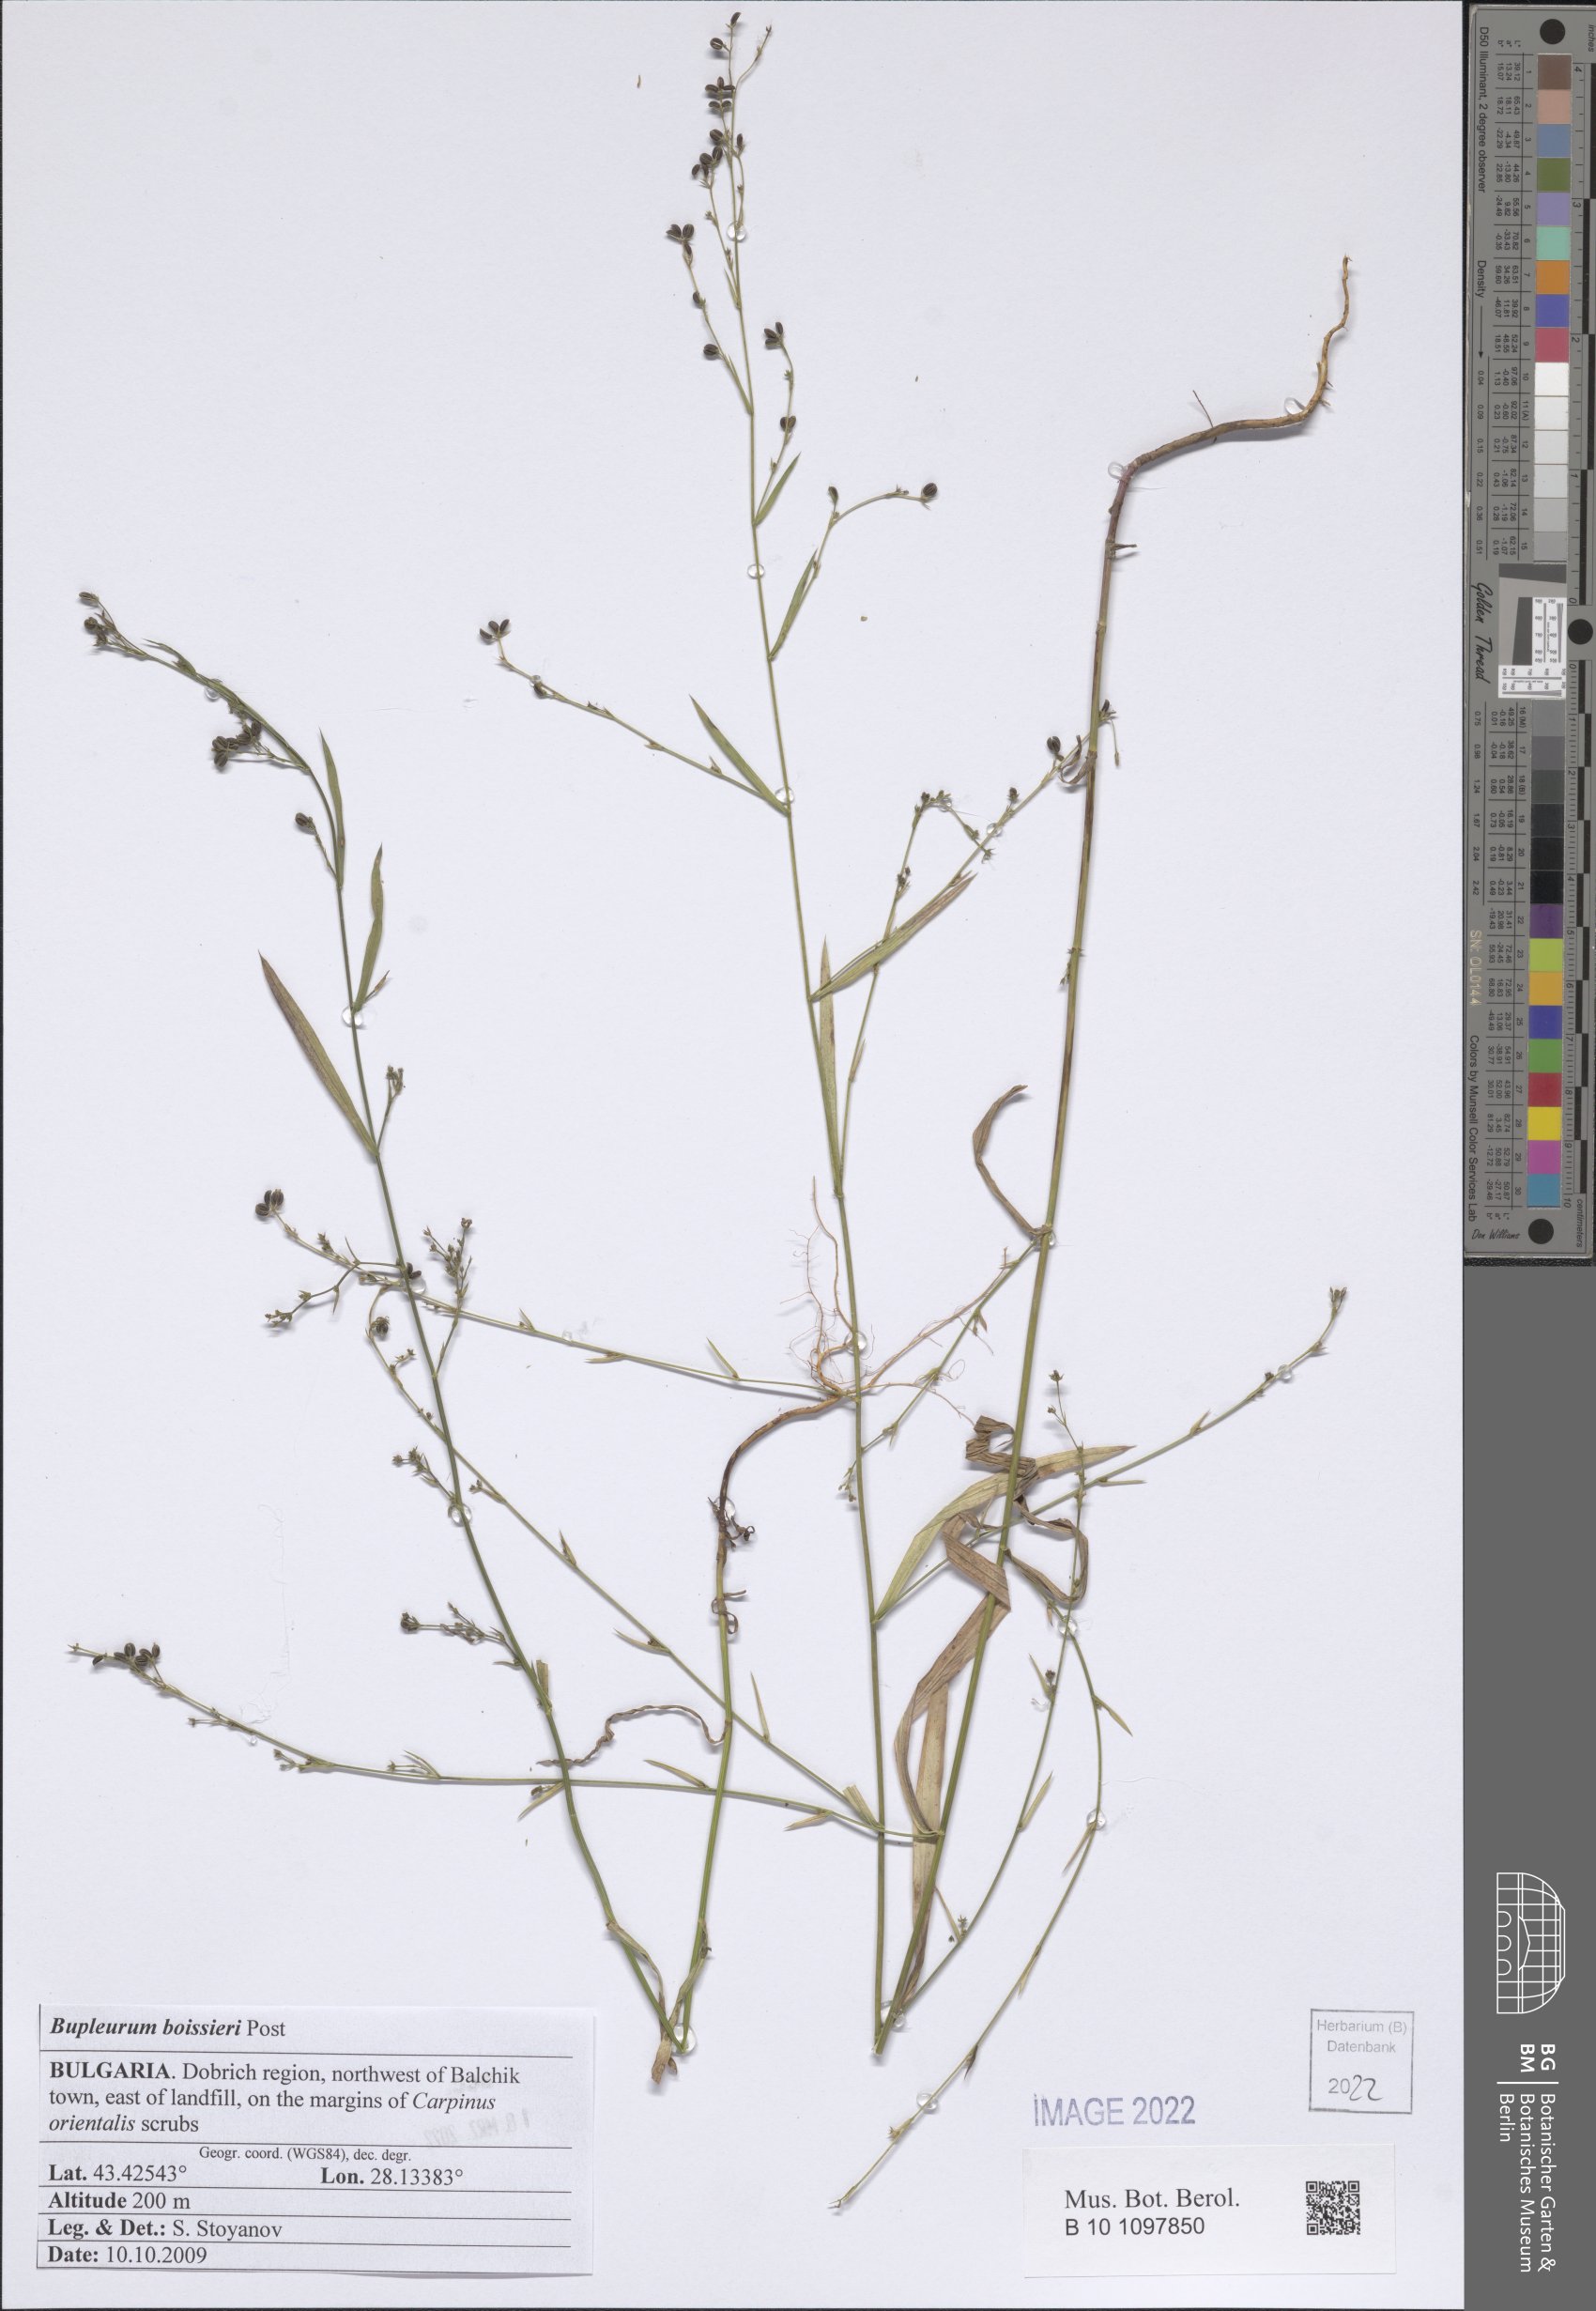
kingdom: Plantae
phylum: Tracheophyta
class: Magnoliopsida
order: Apiales
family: Apiaceae
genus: Bupleurum
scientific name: Bupleurum boissieri
